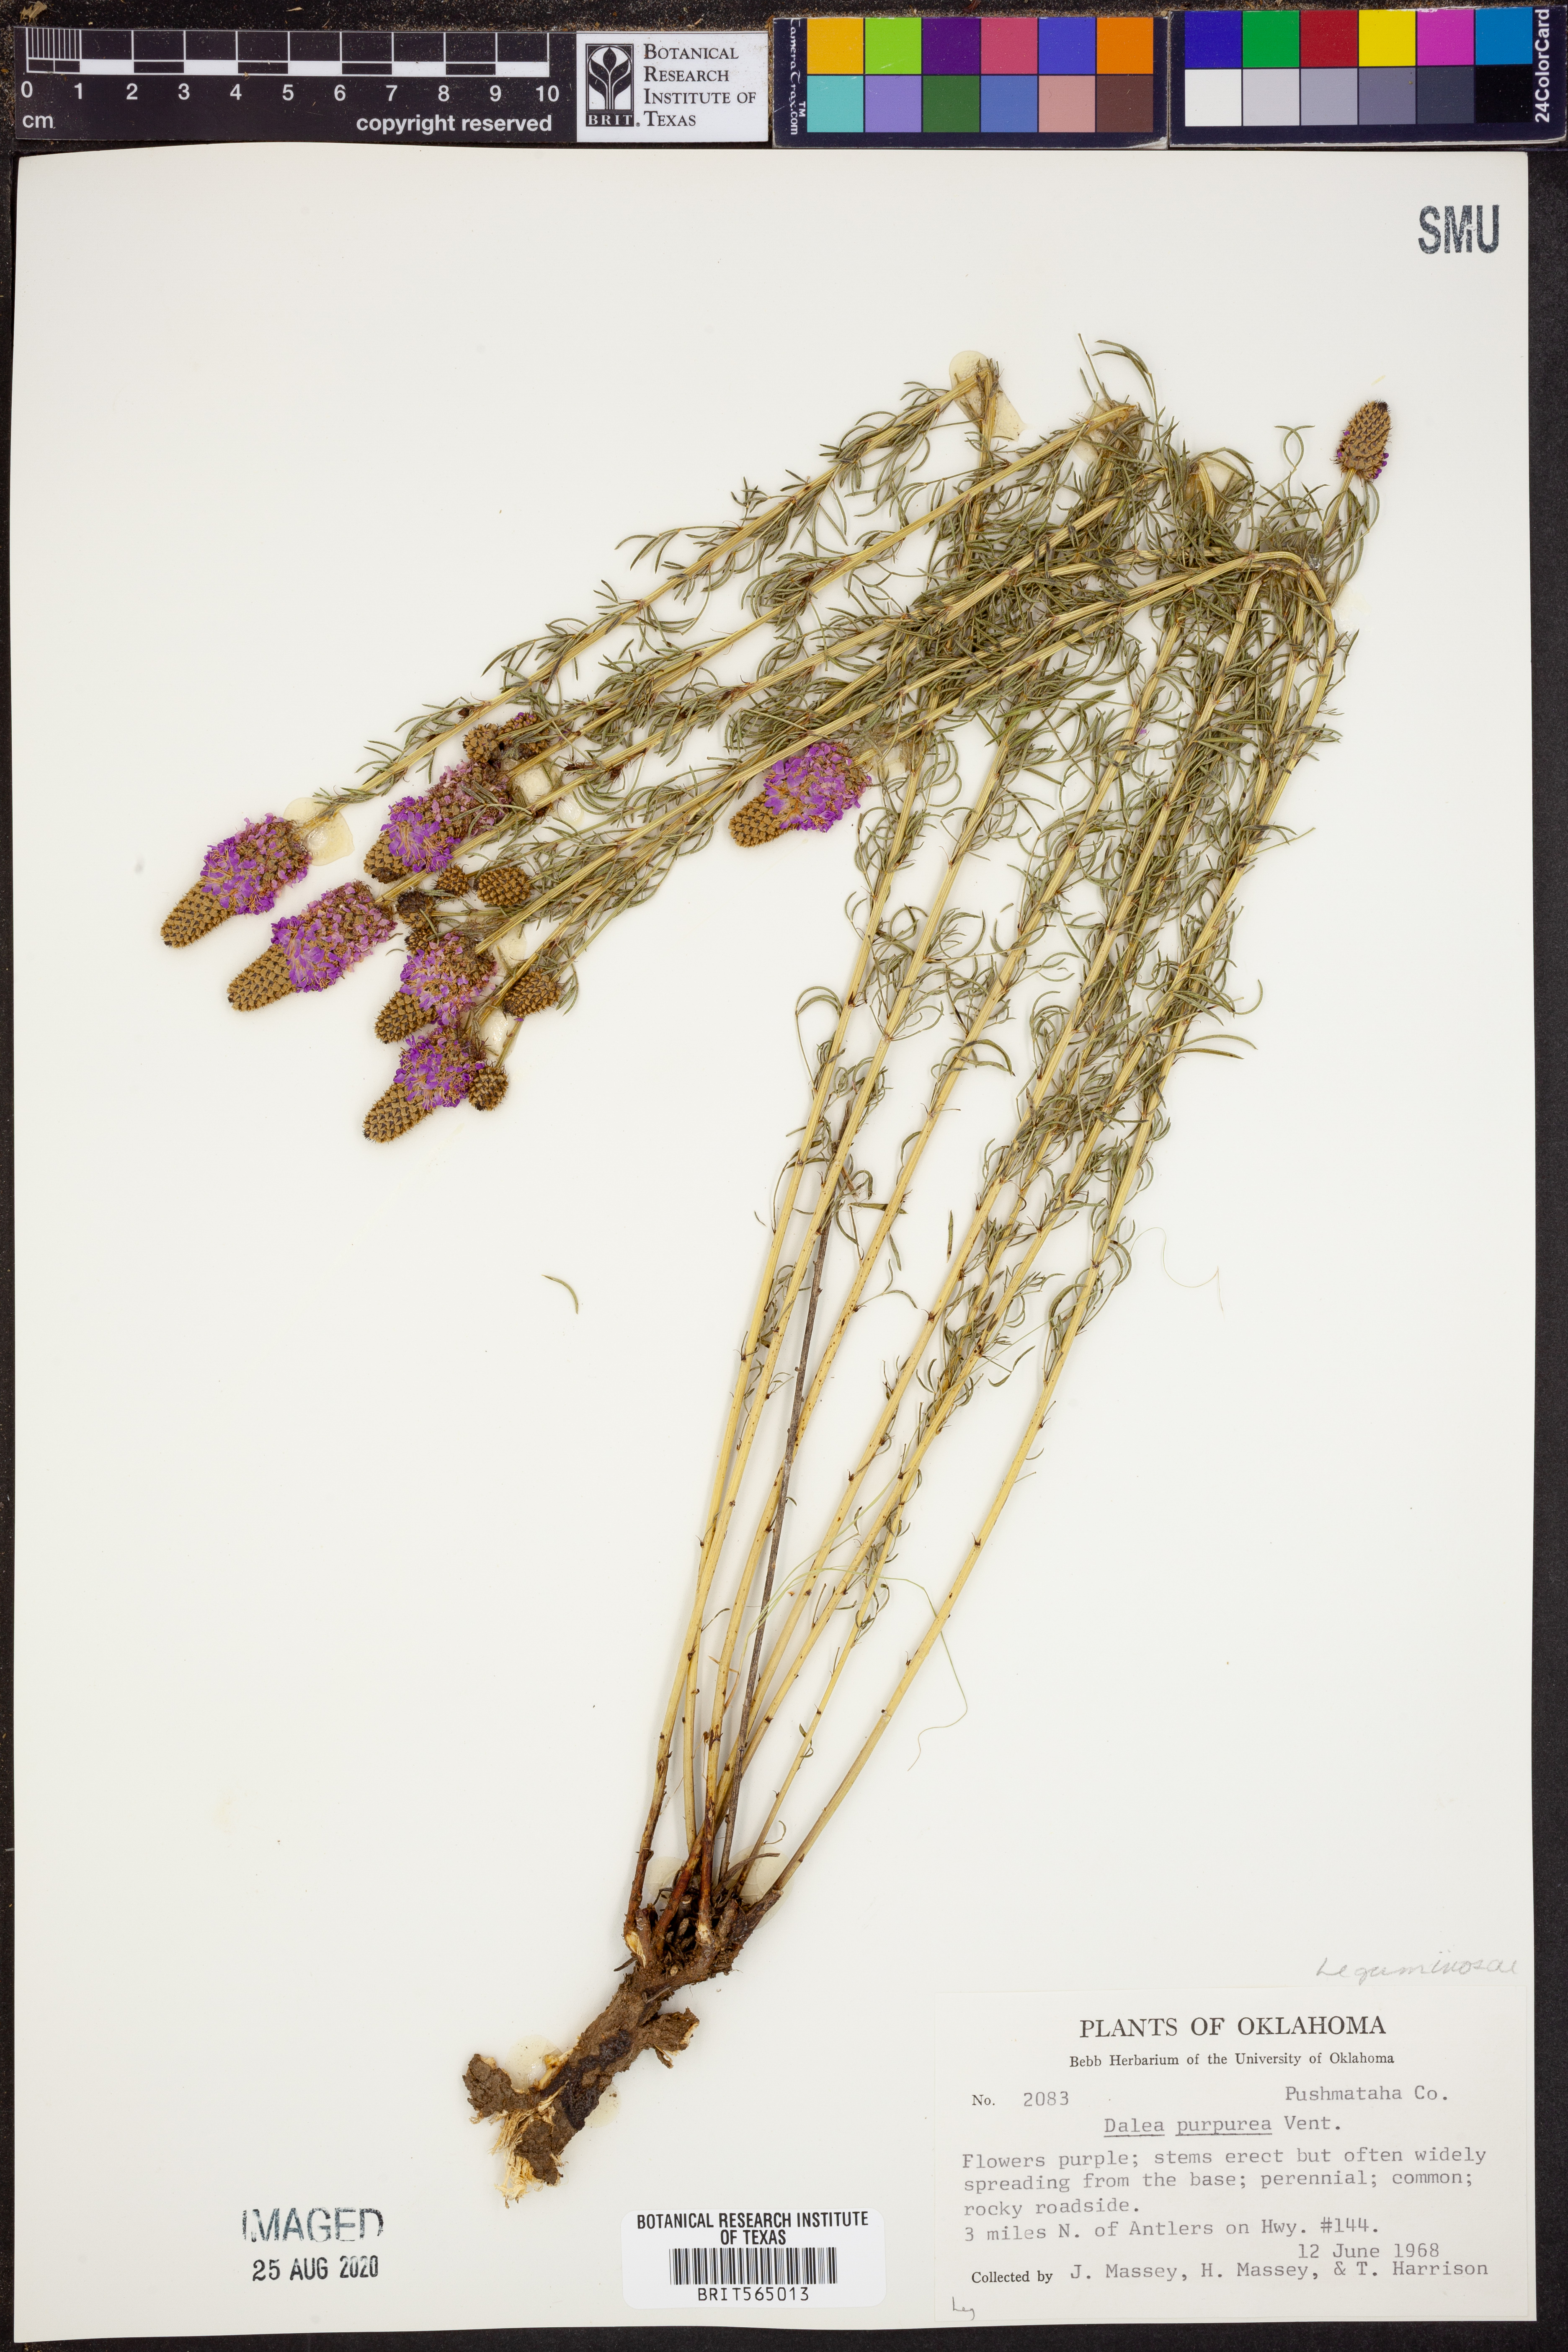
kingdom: Plantae
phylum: Tracheophyta
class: Magnoliopsida
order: Fabales
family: Fabaceae
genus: Dalea
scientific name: Dalea purpurea
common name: Purple prairie-clover
